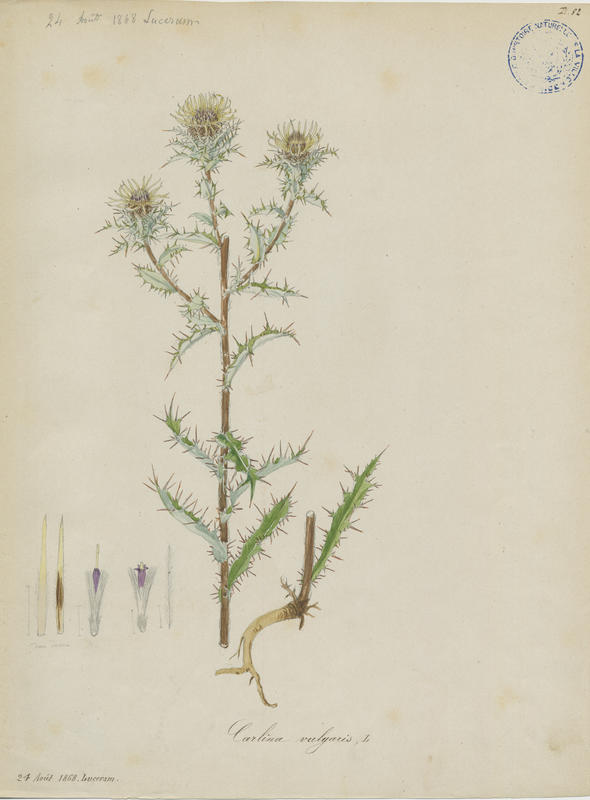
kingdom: Plantae
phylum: Tracheophyta
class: Magnoliopsida
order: Asterales
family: Asteraceae
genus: Carlina
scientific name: Carlina vulgaris
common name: Carline thistle
